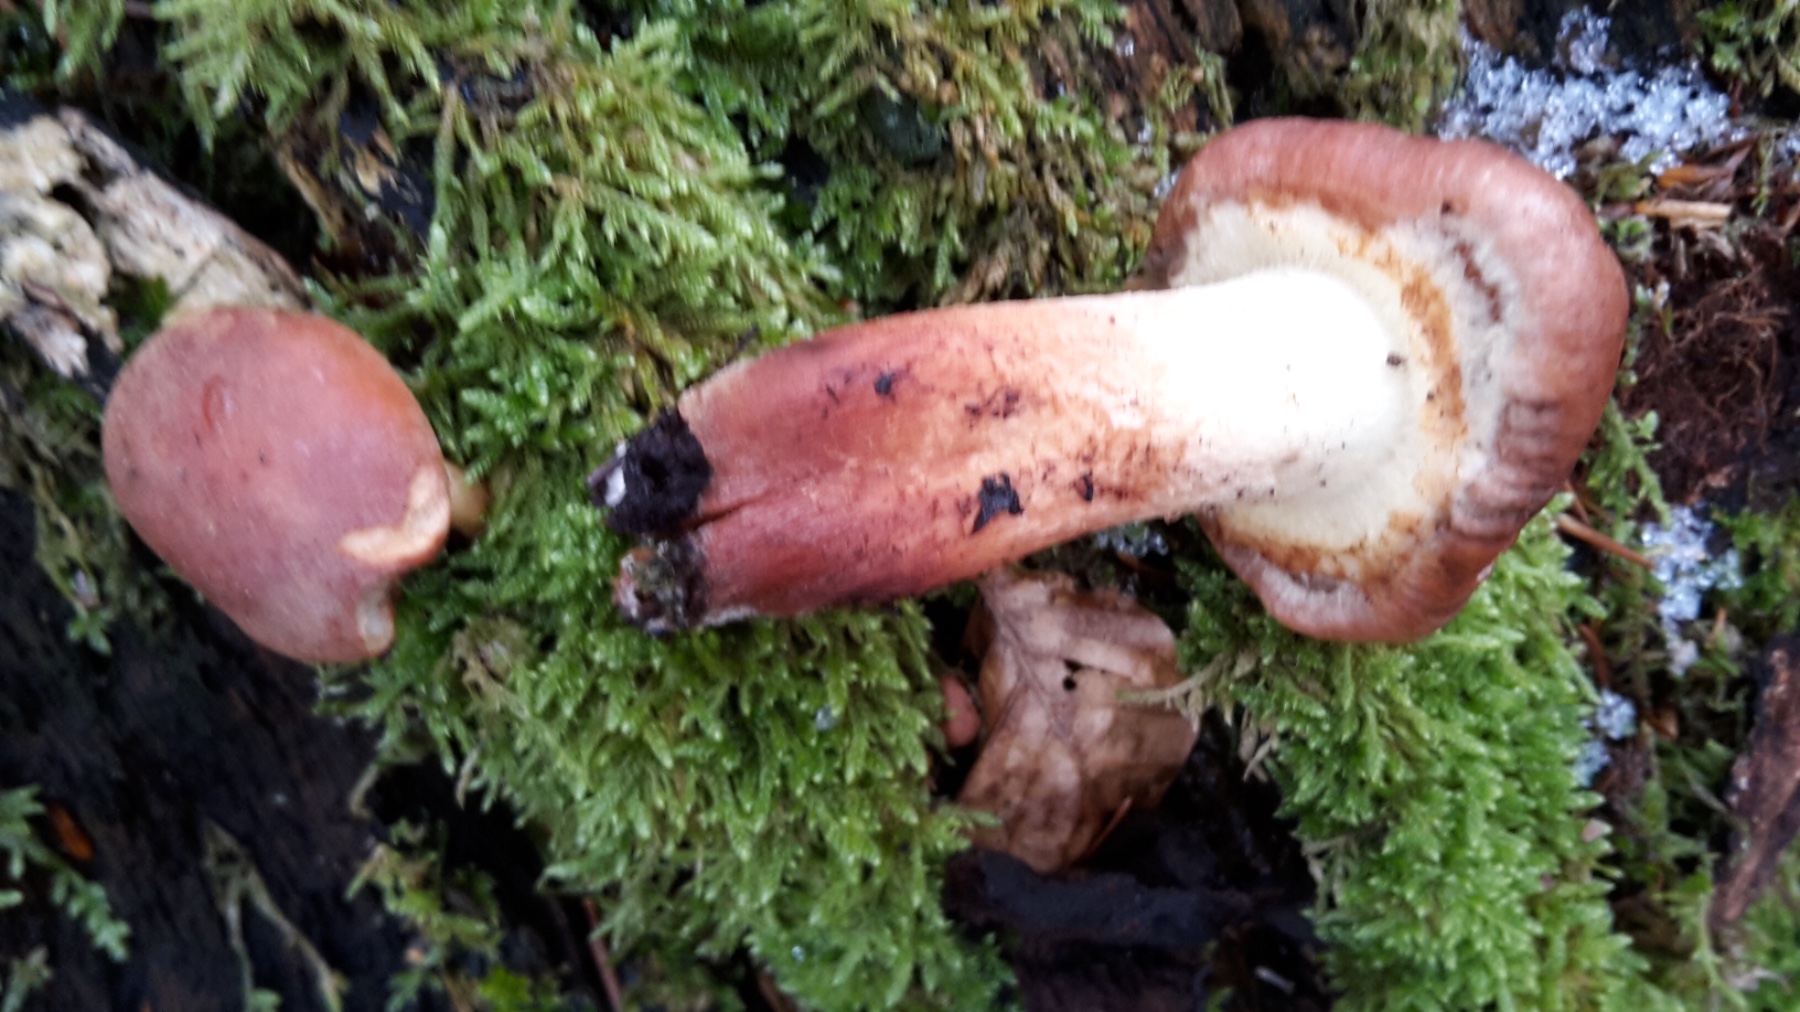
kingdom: Fungi
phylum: Basidiomycota
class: Agaricomycetes
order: Agaricales
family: Strophariaceae
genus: Hypholoma
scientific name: Hypholoma lateritium
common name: teglrød svovlhat
